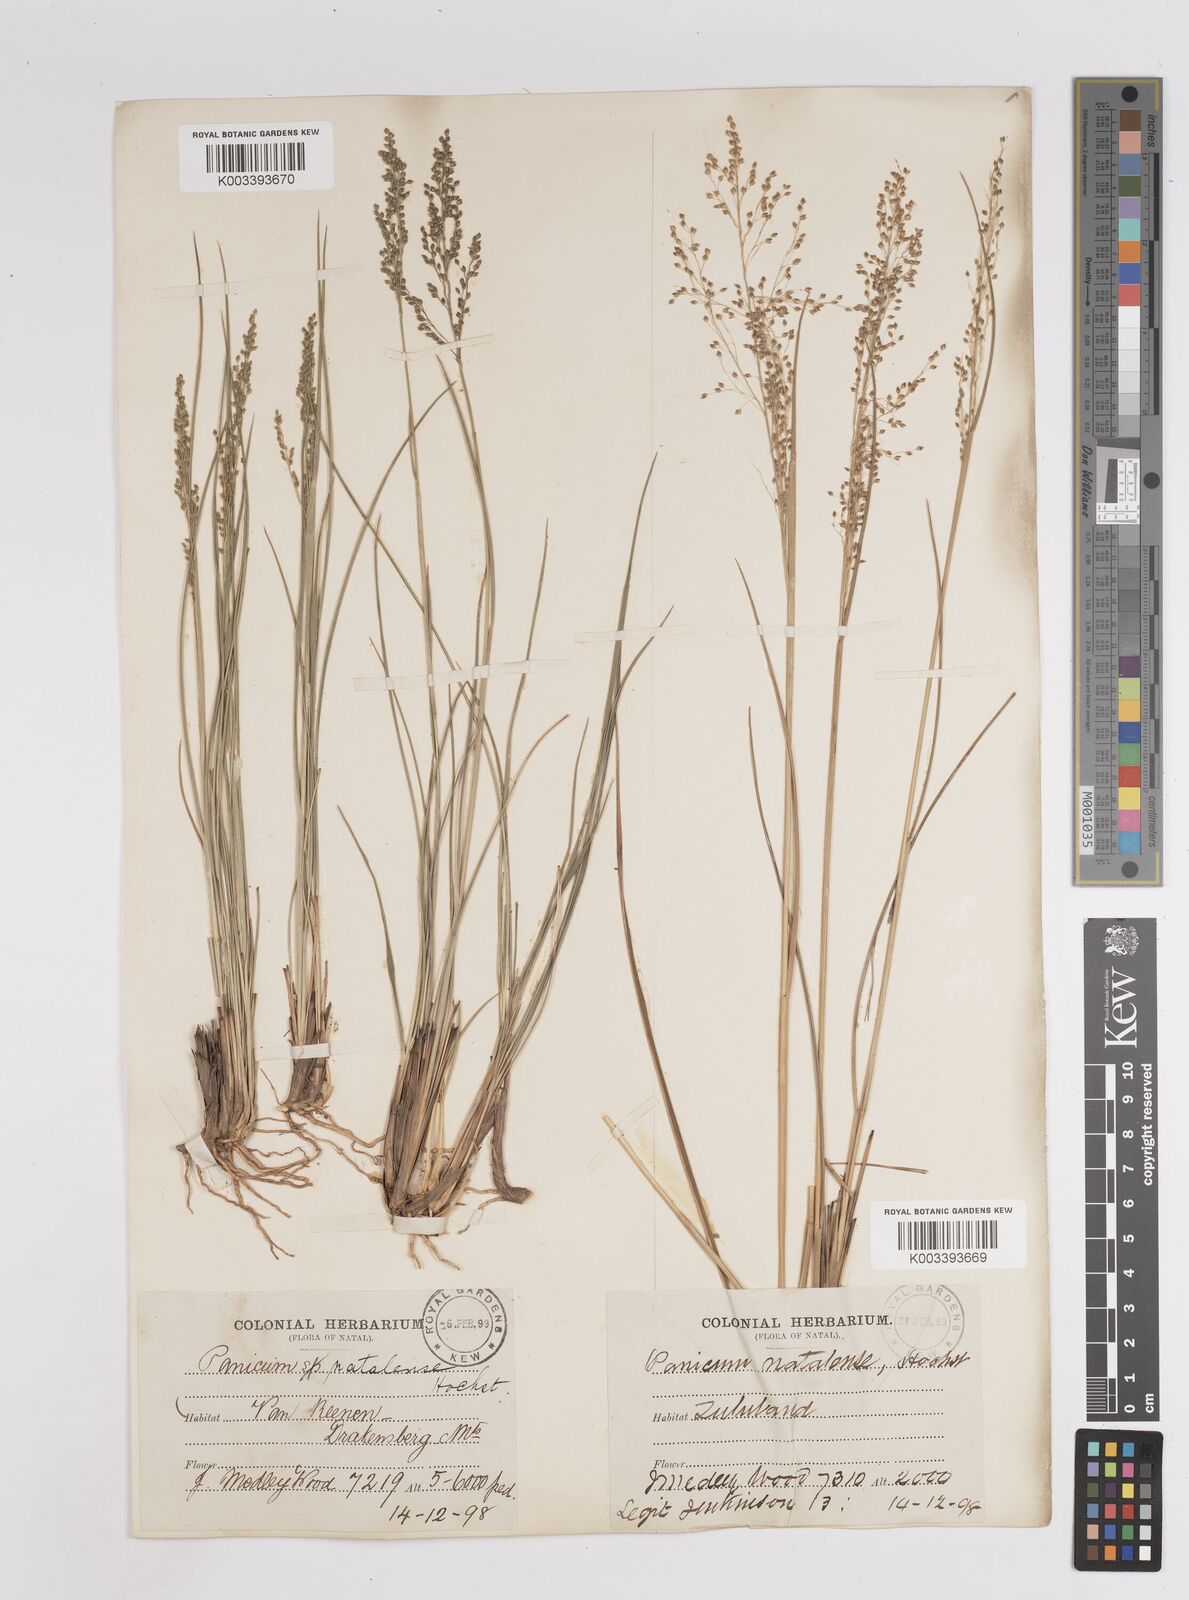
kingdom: Plantae
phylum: Tracheophyta
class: Liliopsida
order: Poales
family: Poaceae
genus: Trichanthecium
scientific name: Trichanthecium natalense
